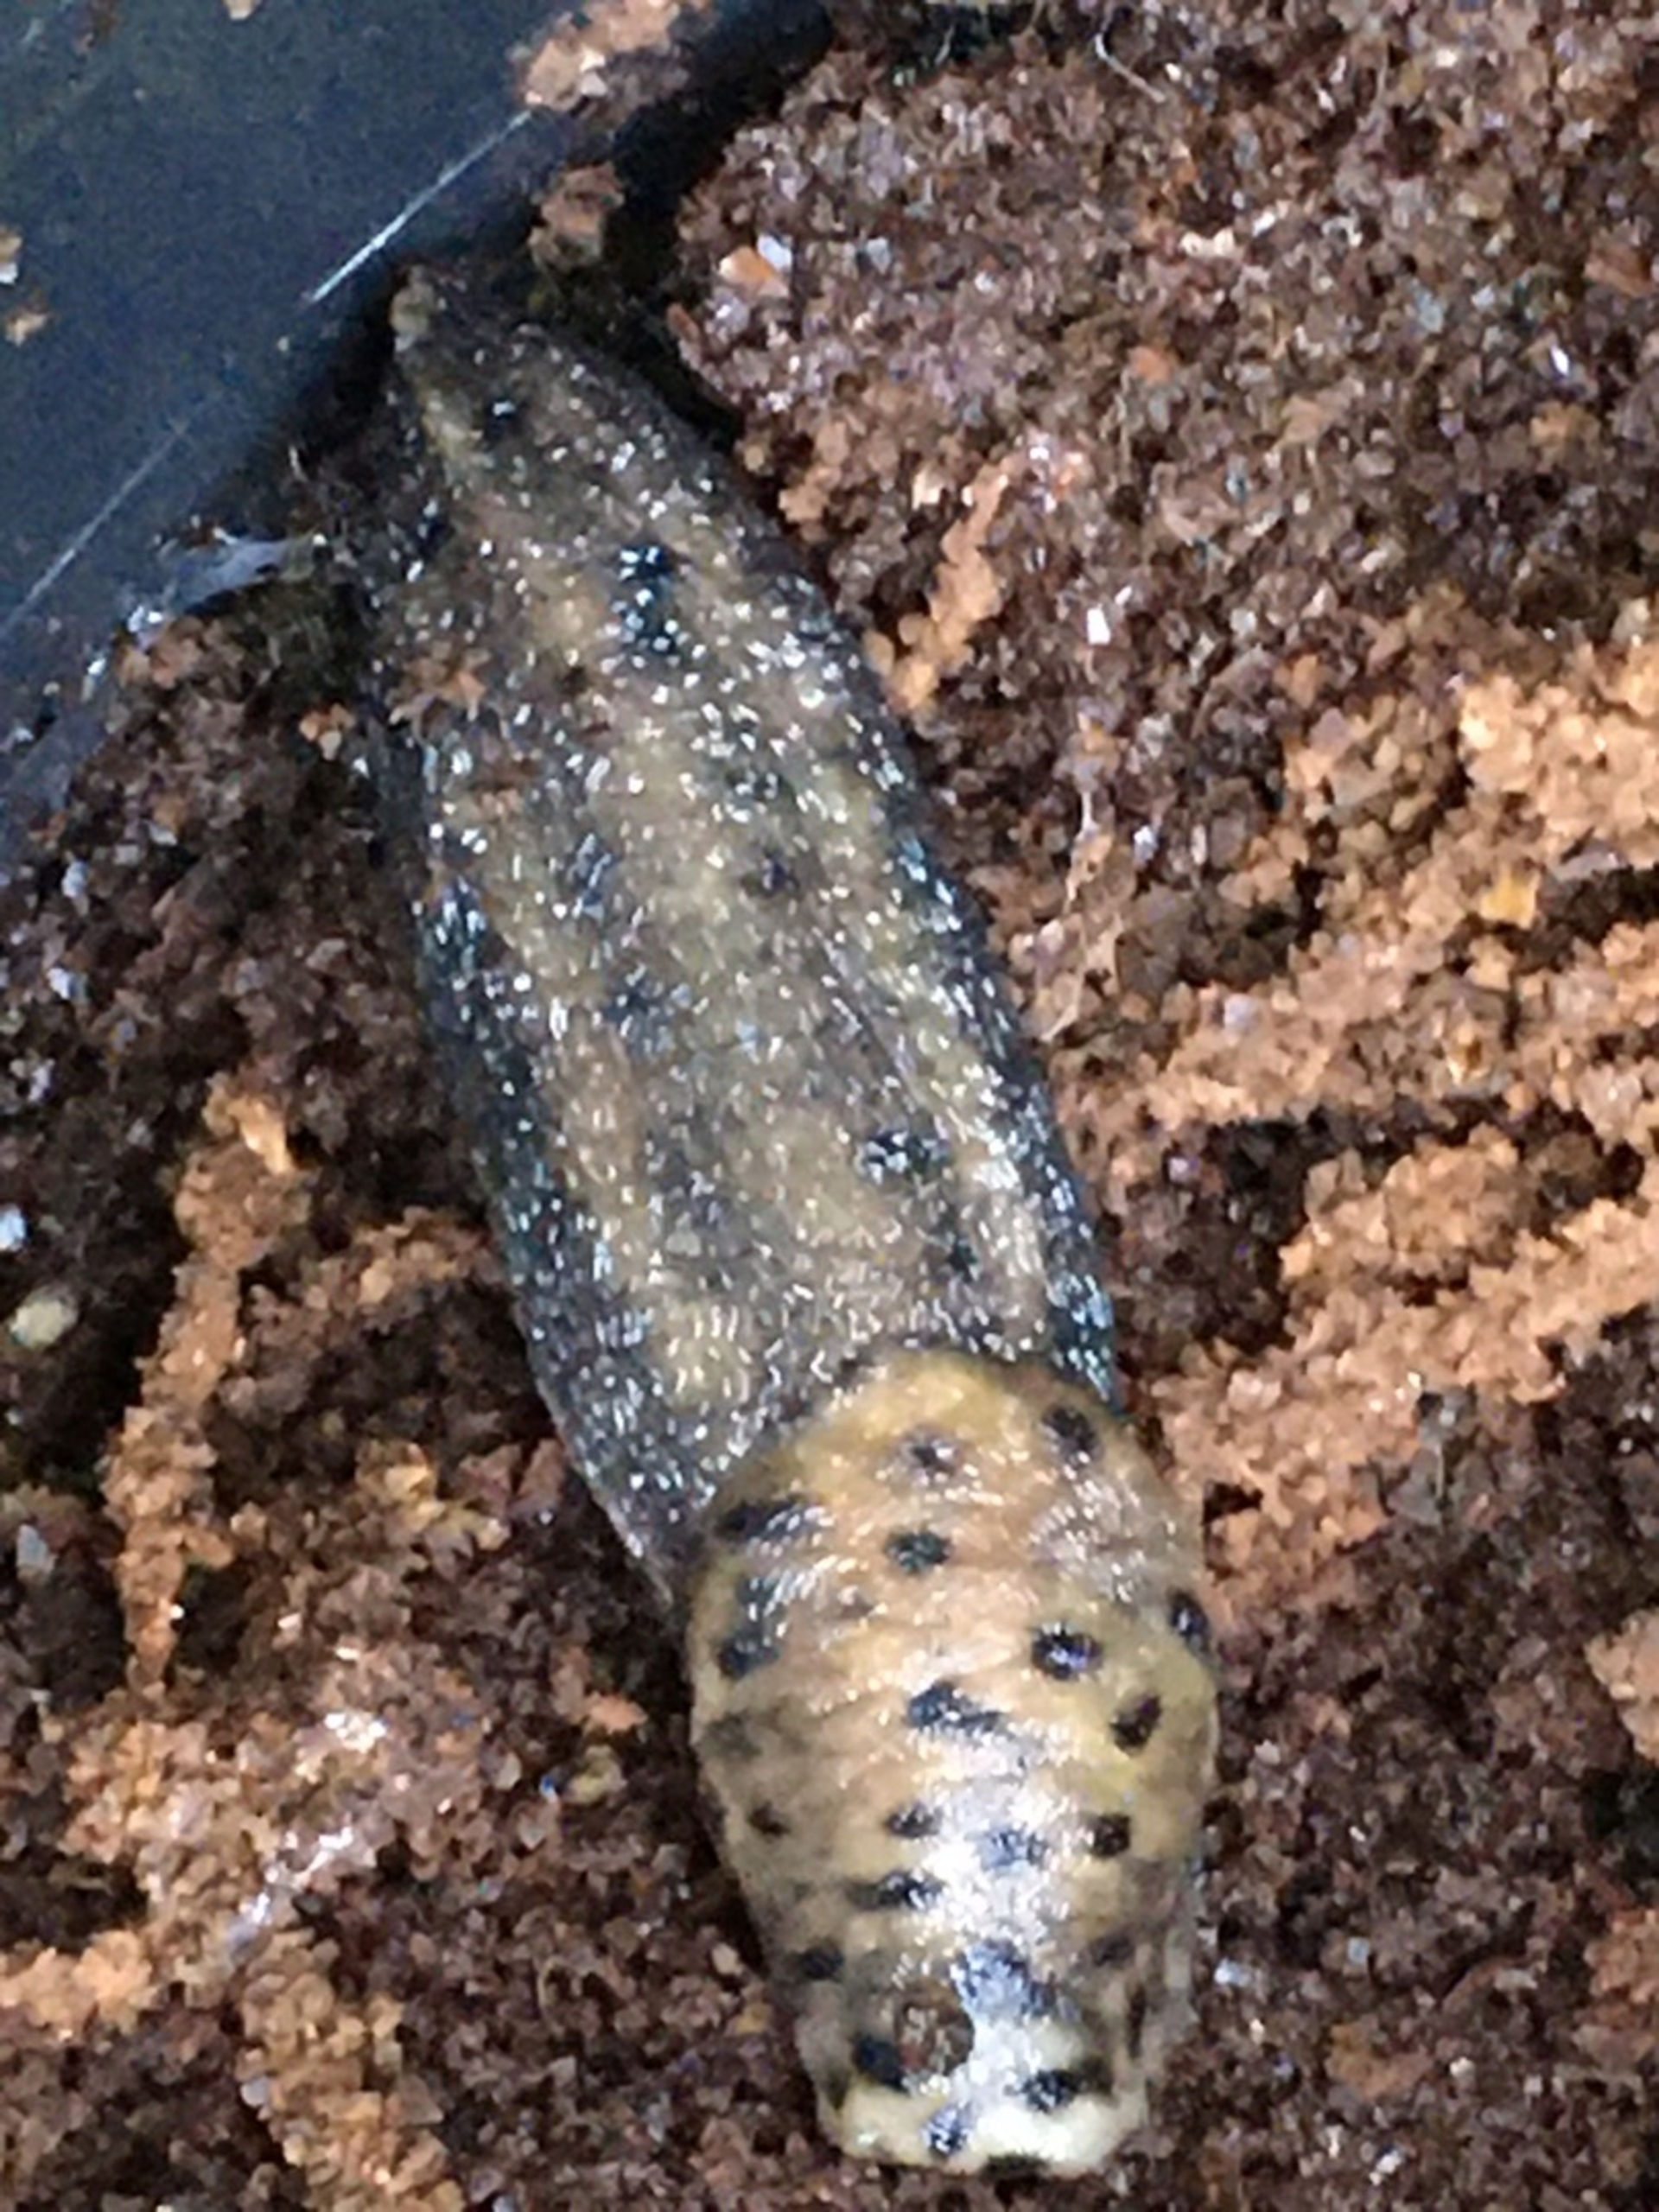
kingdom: Animalia
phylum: Mollusca
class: Gastropoda
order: Stylommatophora
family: Limacidae
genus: Limax
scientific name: Limax maximus
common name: Pantersnegl
